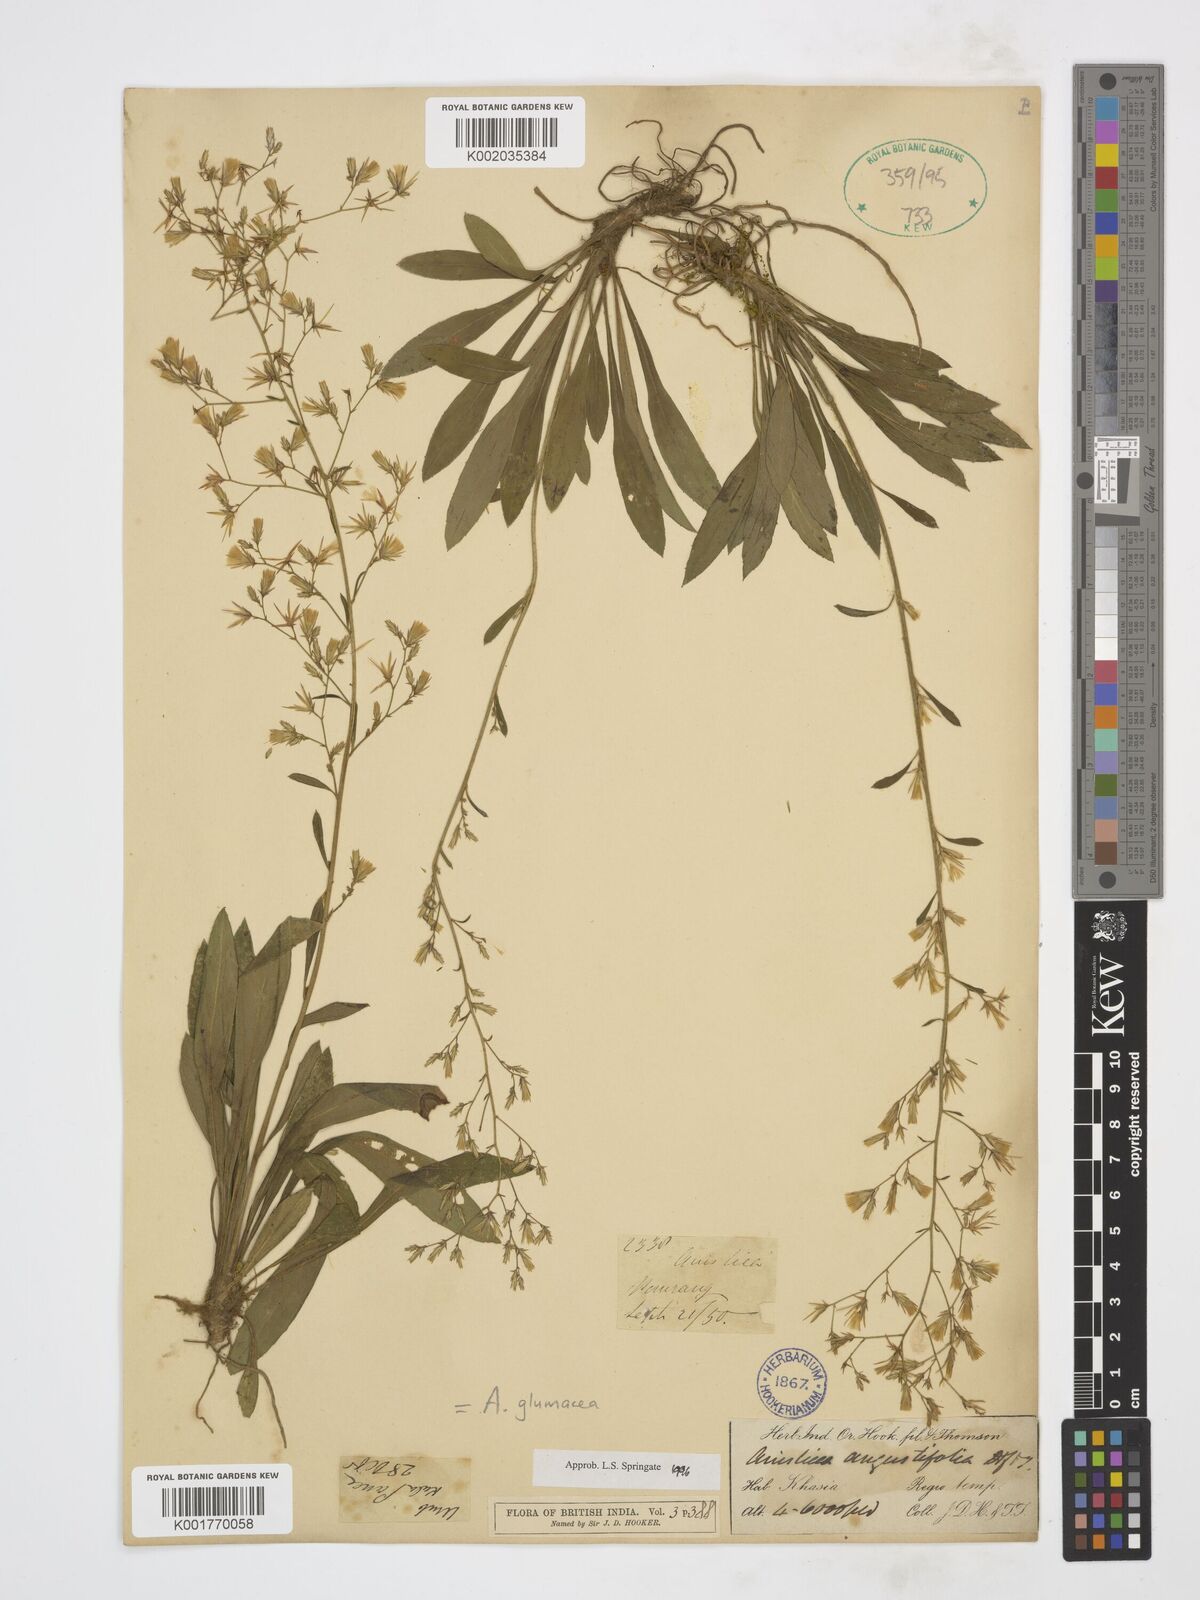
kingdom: Plantae
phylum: Tracheophyta
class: Magnoliopsida
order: Asterales
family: Asteraceae
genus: Ainsliaea
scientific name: Ainsliaea angustifolia
